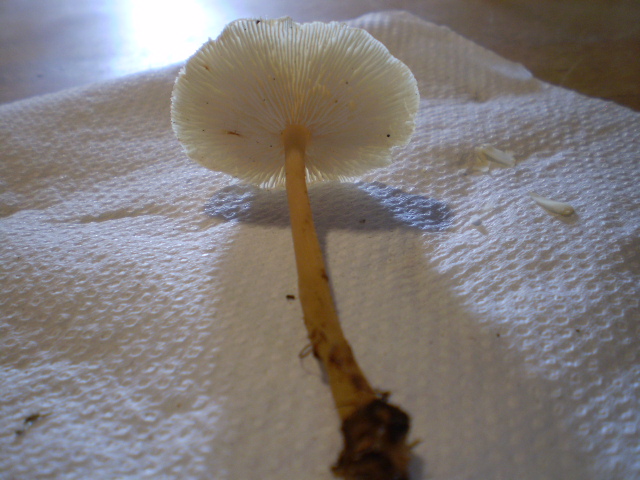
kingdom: Fungi
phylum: Basidiomycota
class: Agaricomycetes
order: Agaricales
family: Omphalotaceae
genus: Gymnopus
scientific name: Gymnopus dryophilus
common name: løv-fladhat
